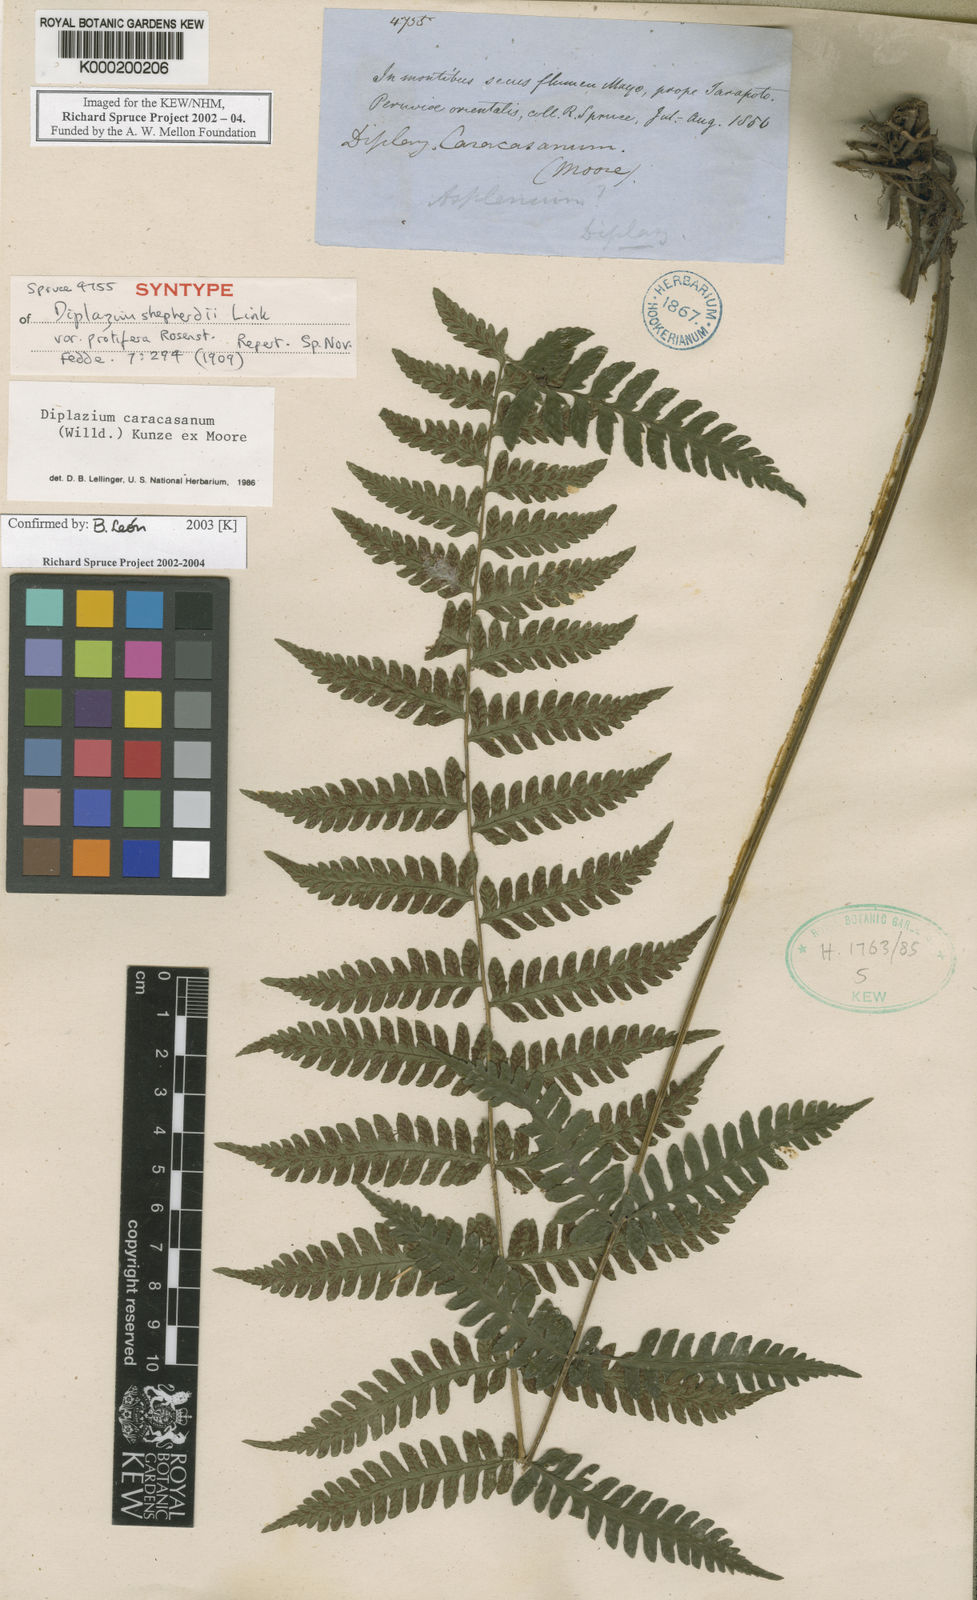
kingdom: Plantae
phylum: Tracheophyta
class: Polypodiopsida
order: Polypodiales
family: Athyriaceae
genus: Diplazium
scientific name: Diplazium
